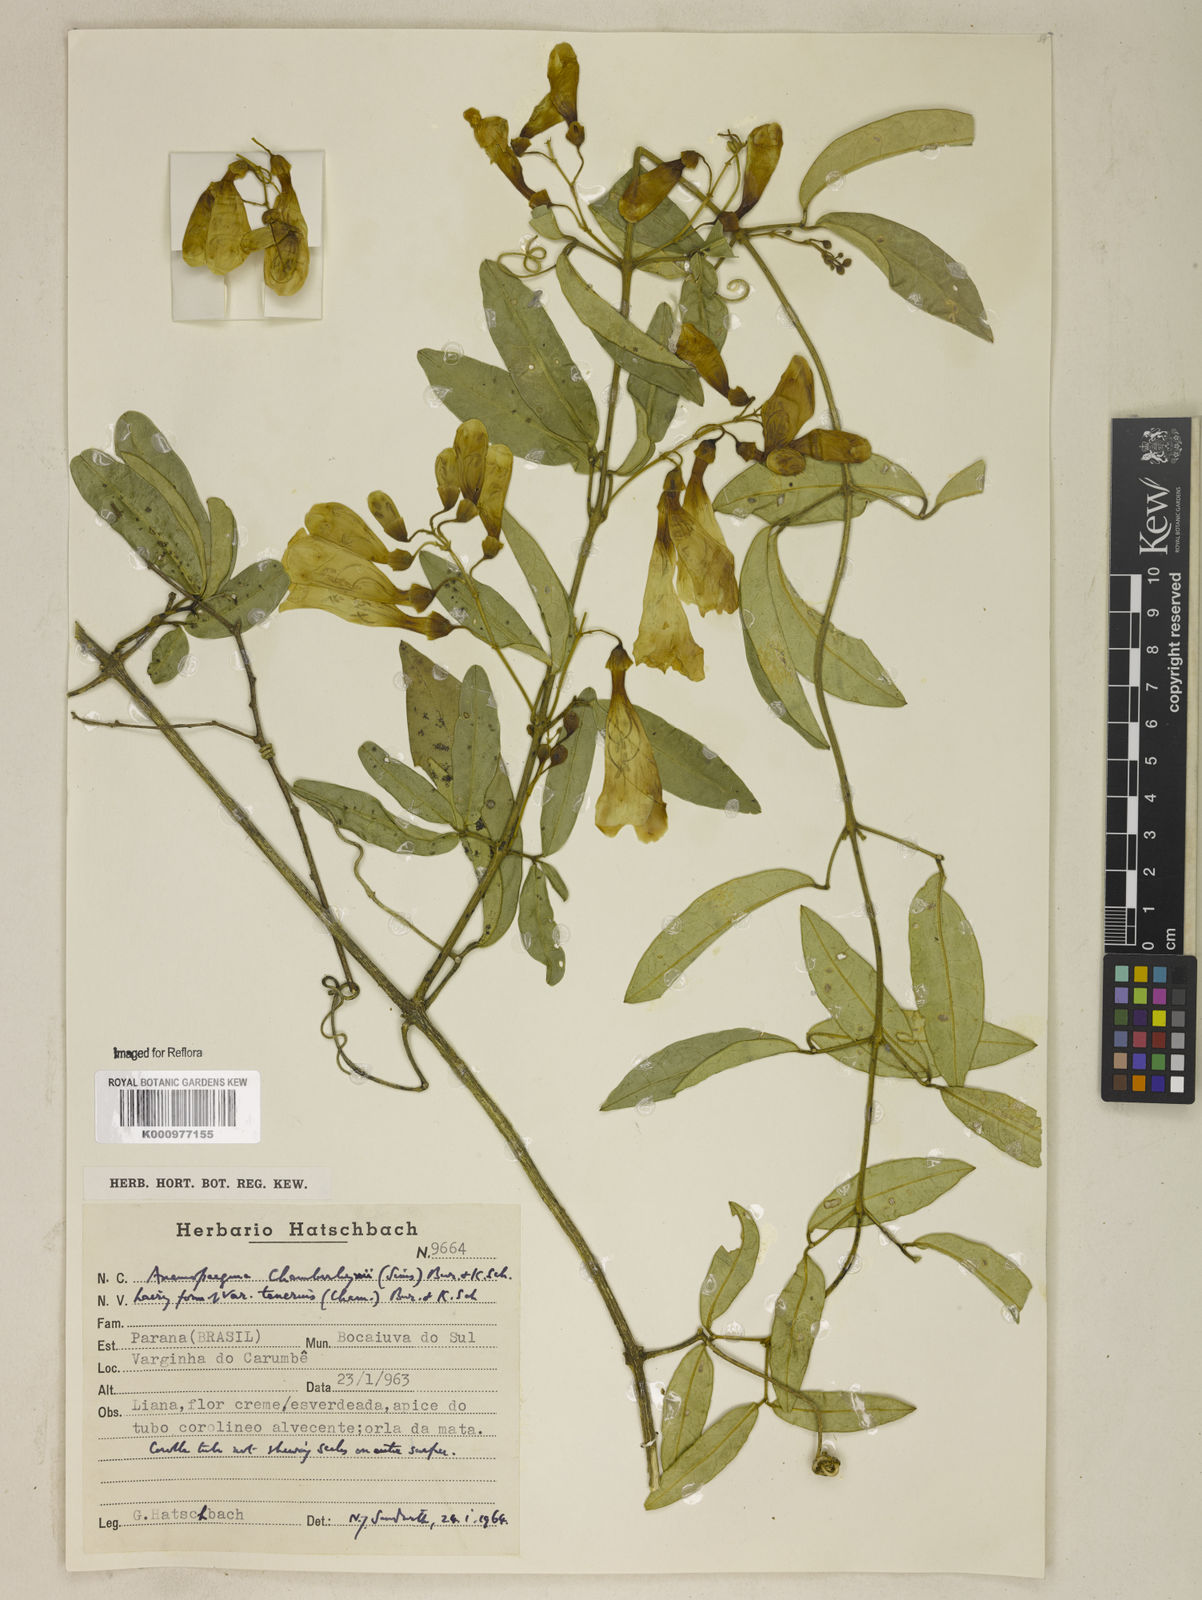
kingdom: Plantae
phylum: Tracheophyta
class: Magnoliopsida
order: Lamiales
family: Bignoniaceae
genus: Anemopaegma
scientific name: Anemopaegma chamberlaynii
